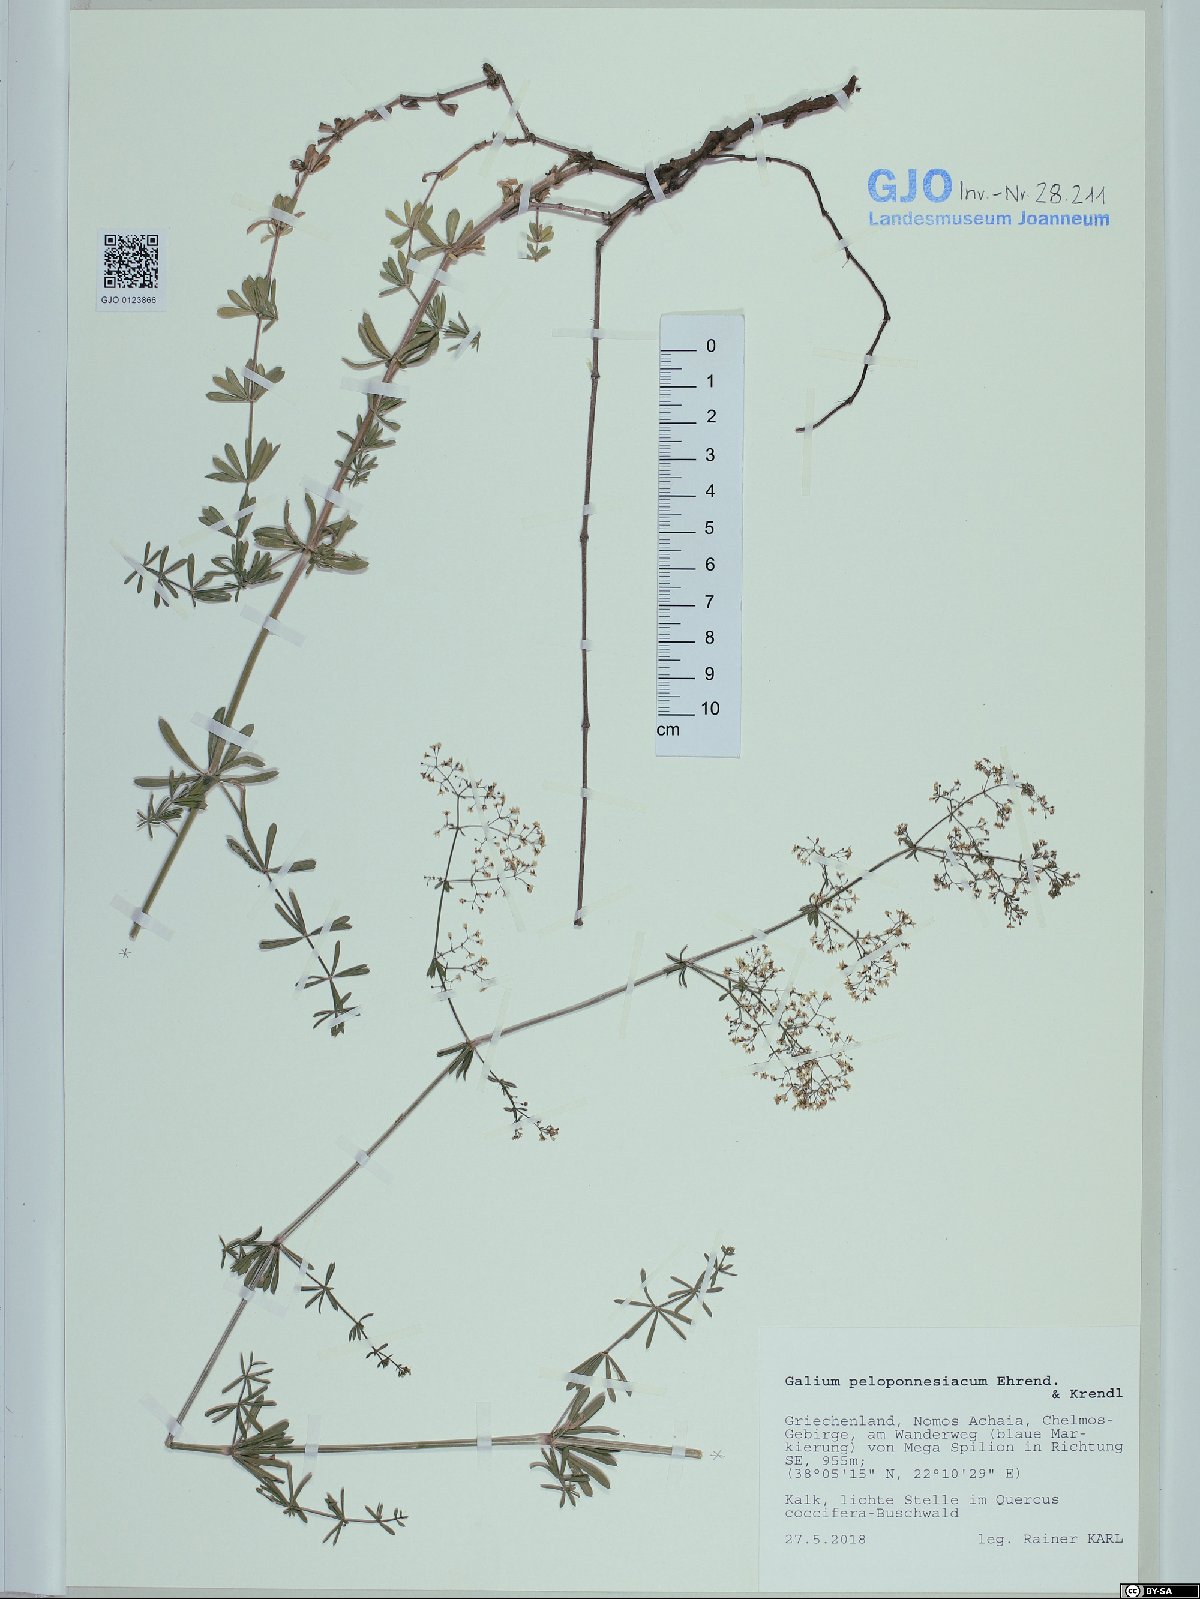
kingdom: Plantae
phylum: Tracheophyta
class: Magnoliopsida
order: Gentianales
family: Rubiaceae
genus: Galium
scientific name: Galium peloponnesiacum
